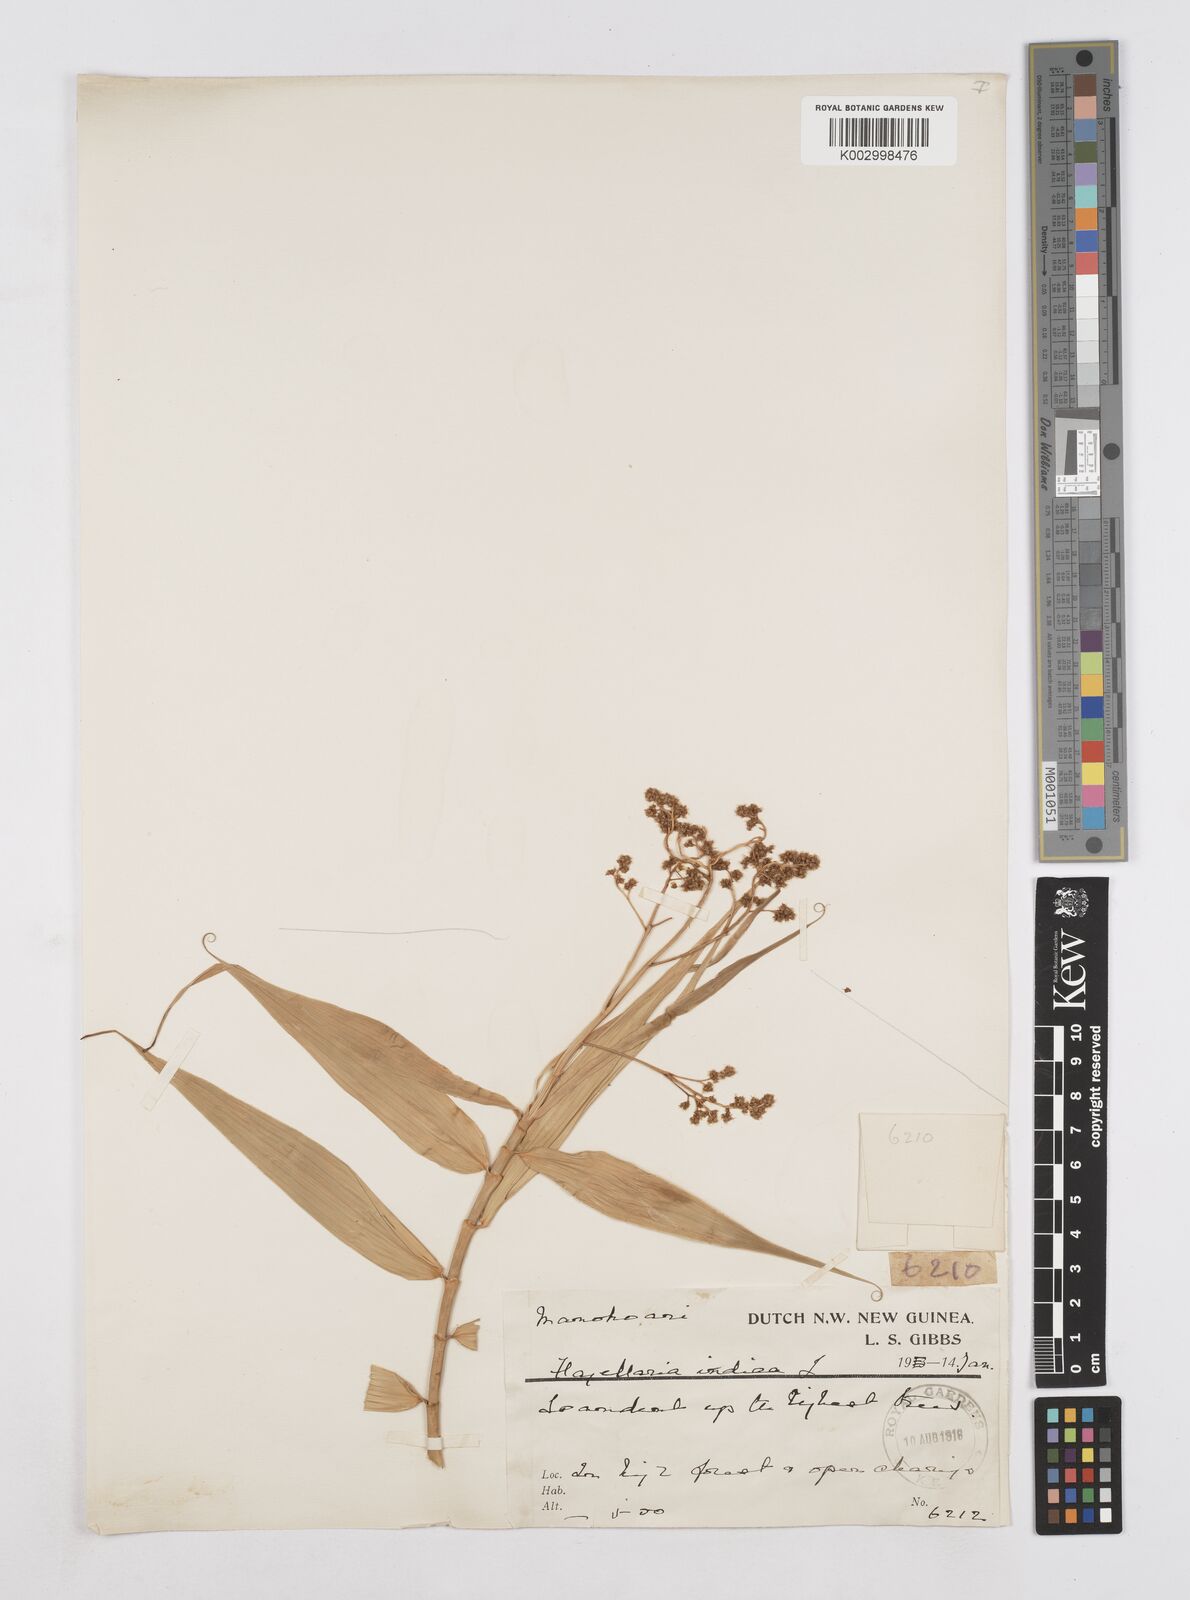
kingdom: Plantae
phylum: Tracheophyta
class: Liliopsida
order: Poales
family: Flagellariaceae
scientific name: Flagellariaceae
